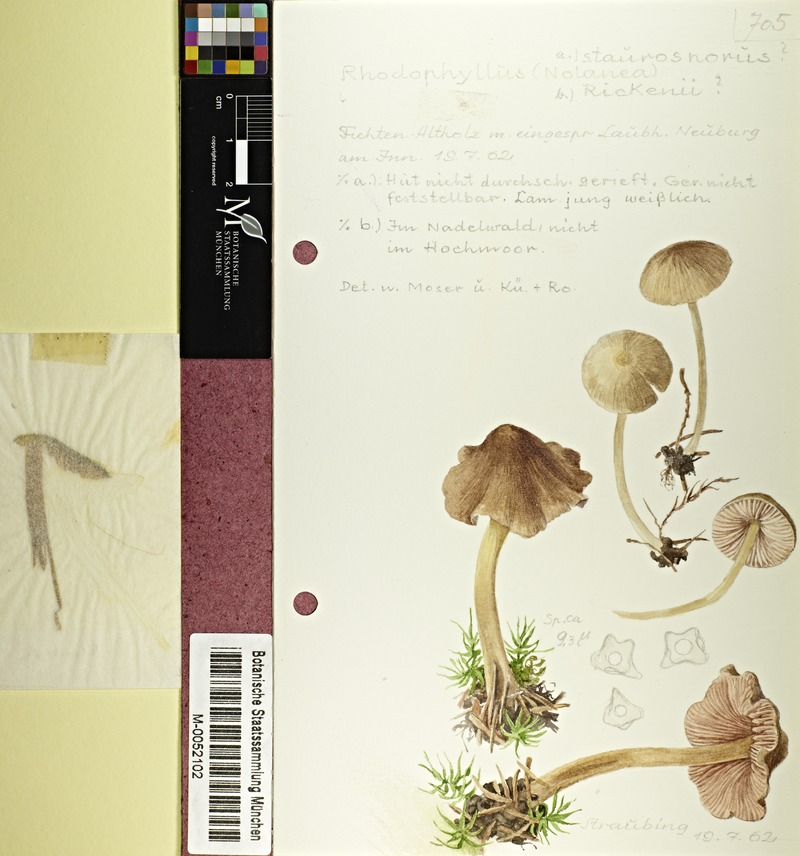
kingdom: Fungi
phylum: Basidiomycota
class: Agaricomycetes
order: Agaricales
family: Entolomataceae
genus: Entoloma
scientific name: Entoloma conferendum
